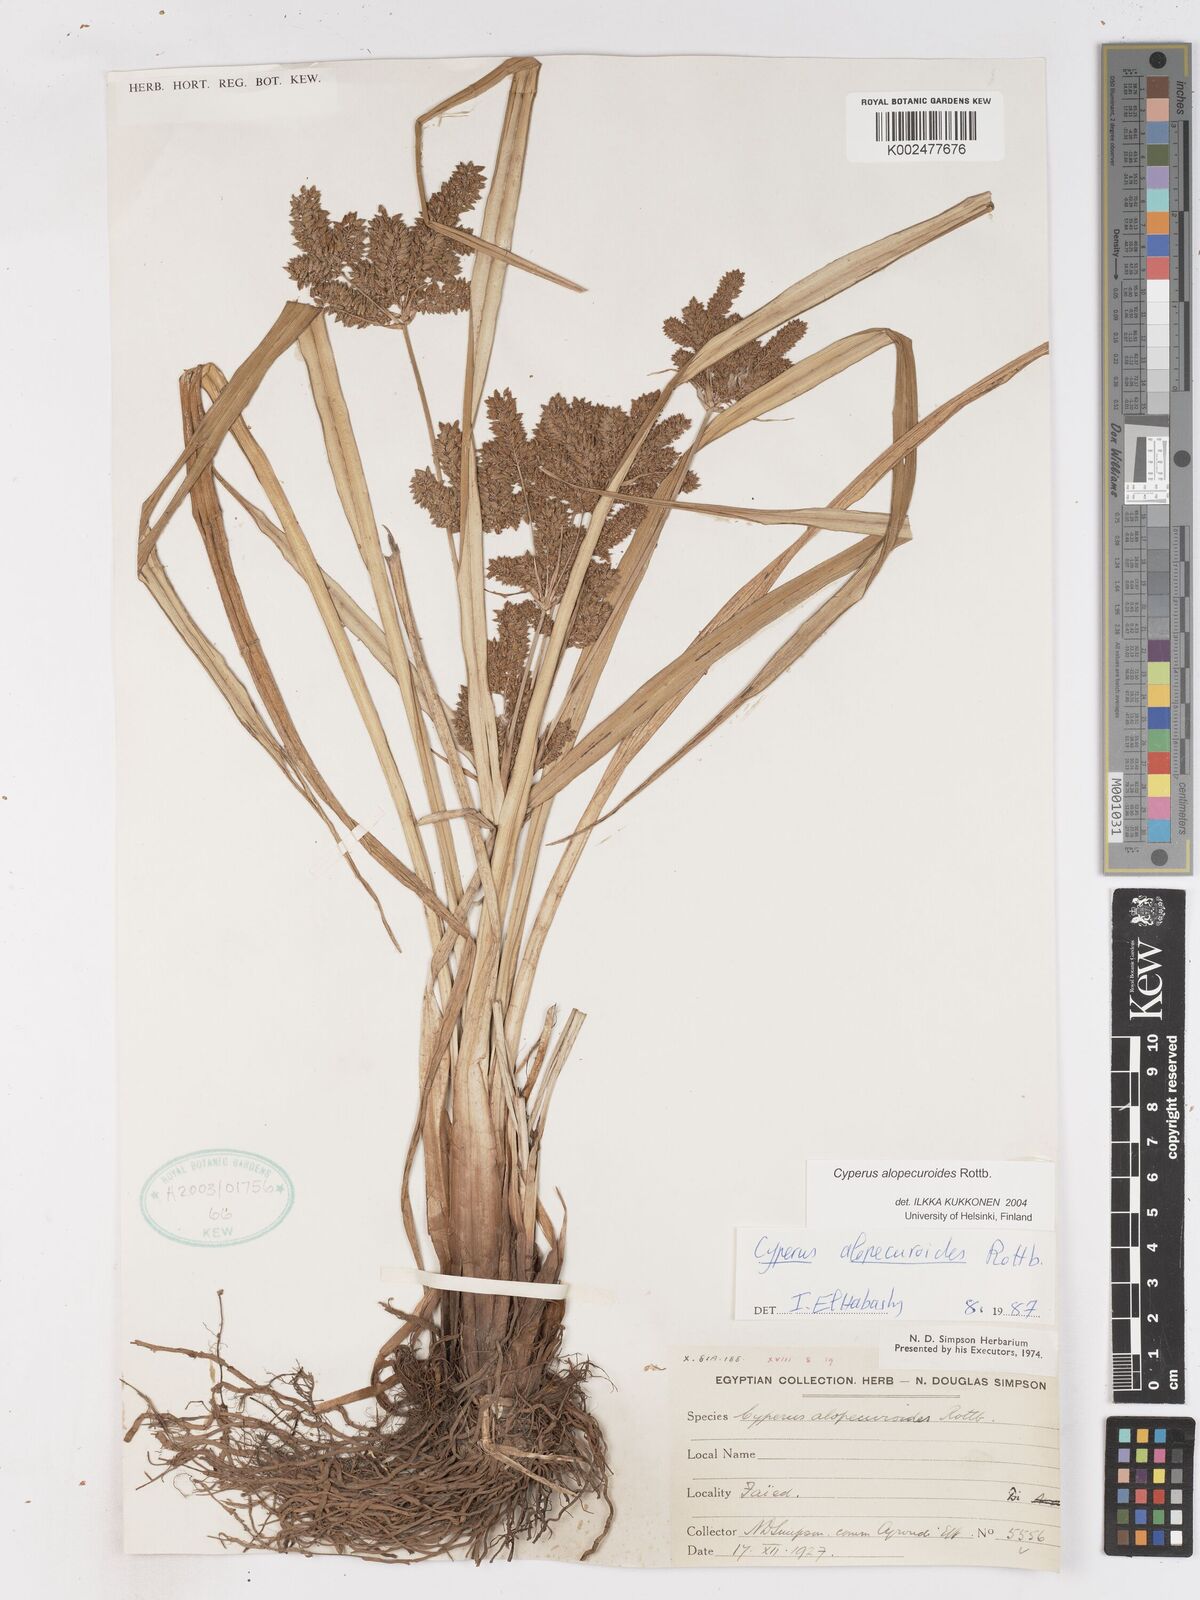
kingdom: Plantae
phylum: Tracheophyta
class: Liliopsida
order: Poales
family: Cyperaceae
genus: Cyperus
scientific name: Cyperus alopecuroides
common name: Foxtail flatsedge
